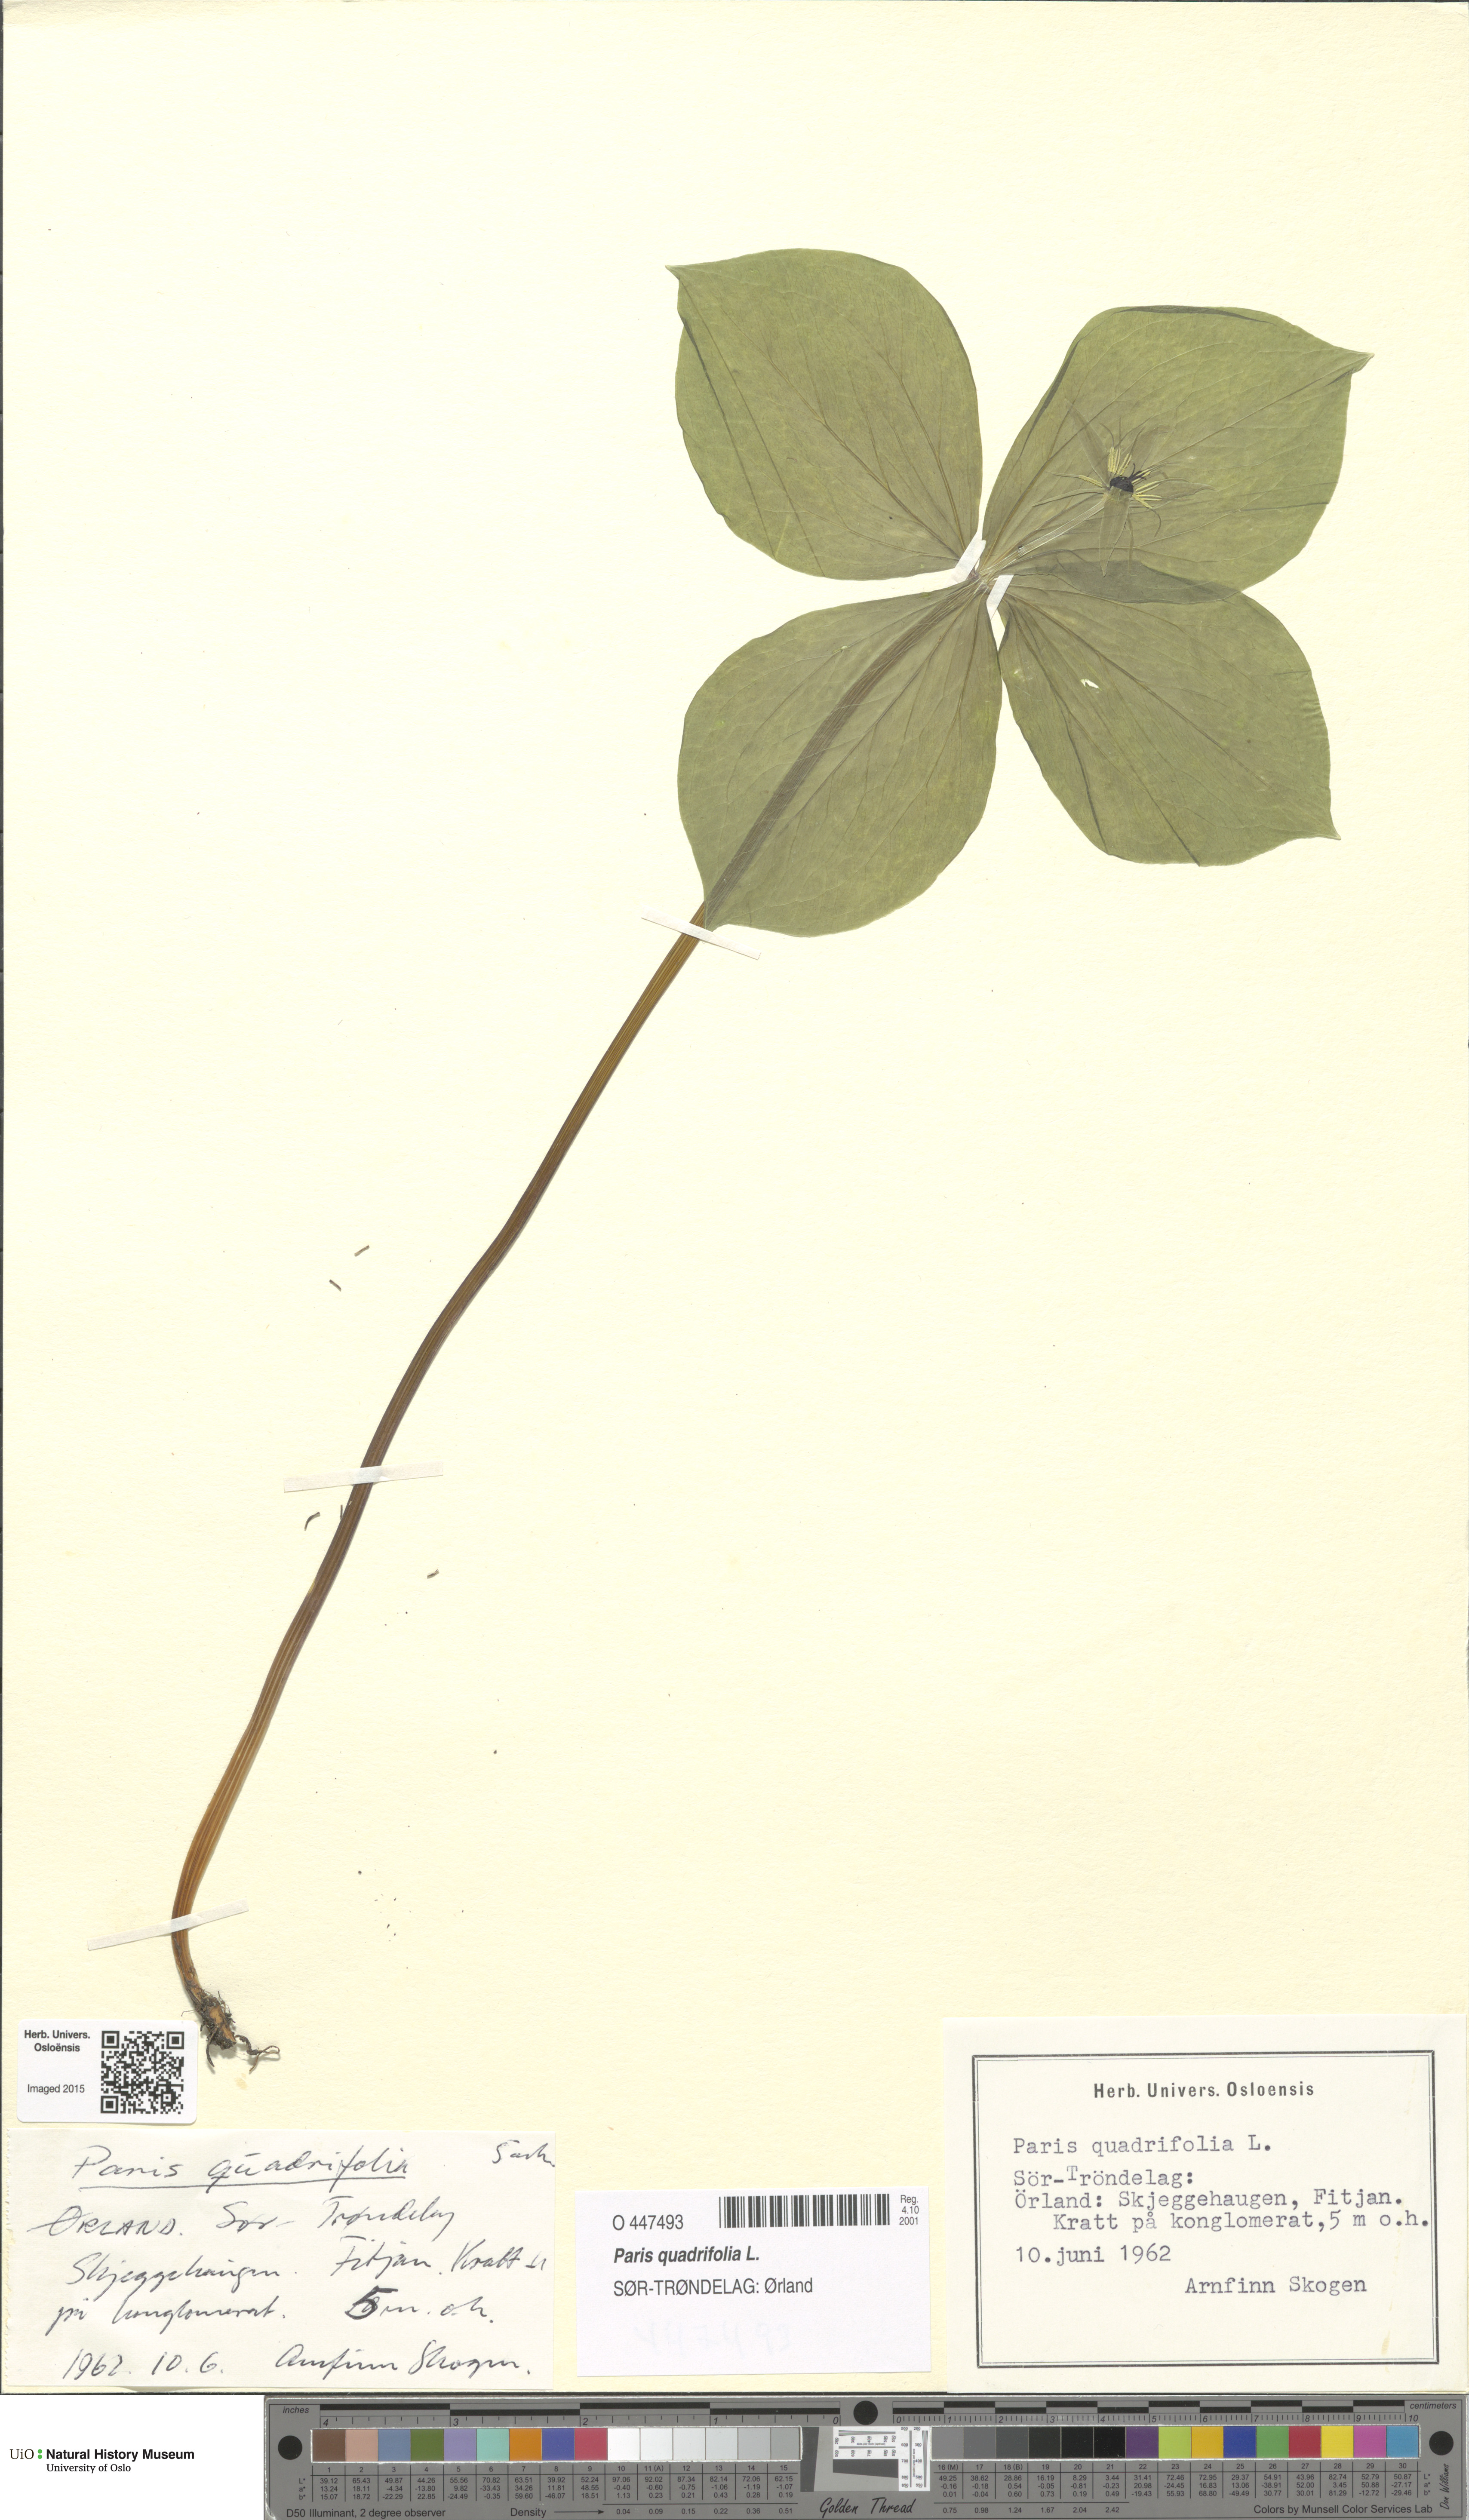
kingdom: Plantae
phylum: Tracheophyta
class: Liliopsida
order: Liliales
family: Melanthiaceae
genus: Paris
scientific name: Paris quadrifolia
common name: Herb-paris
